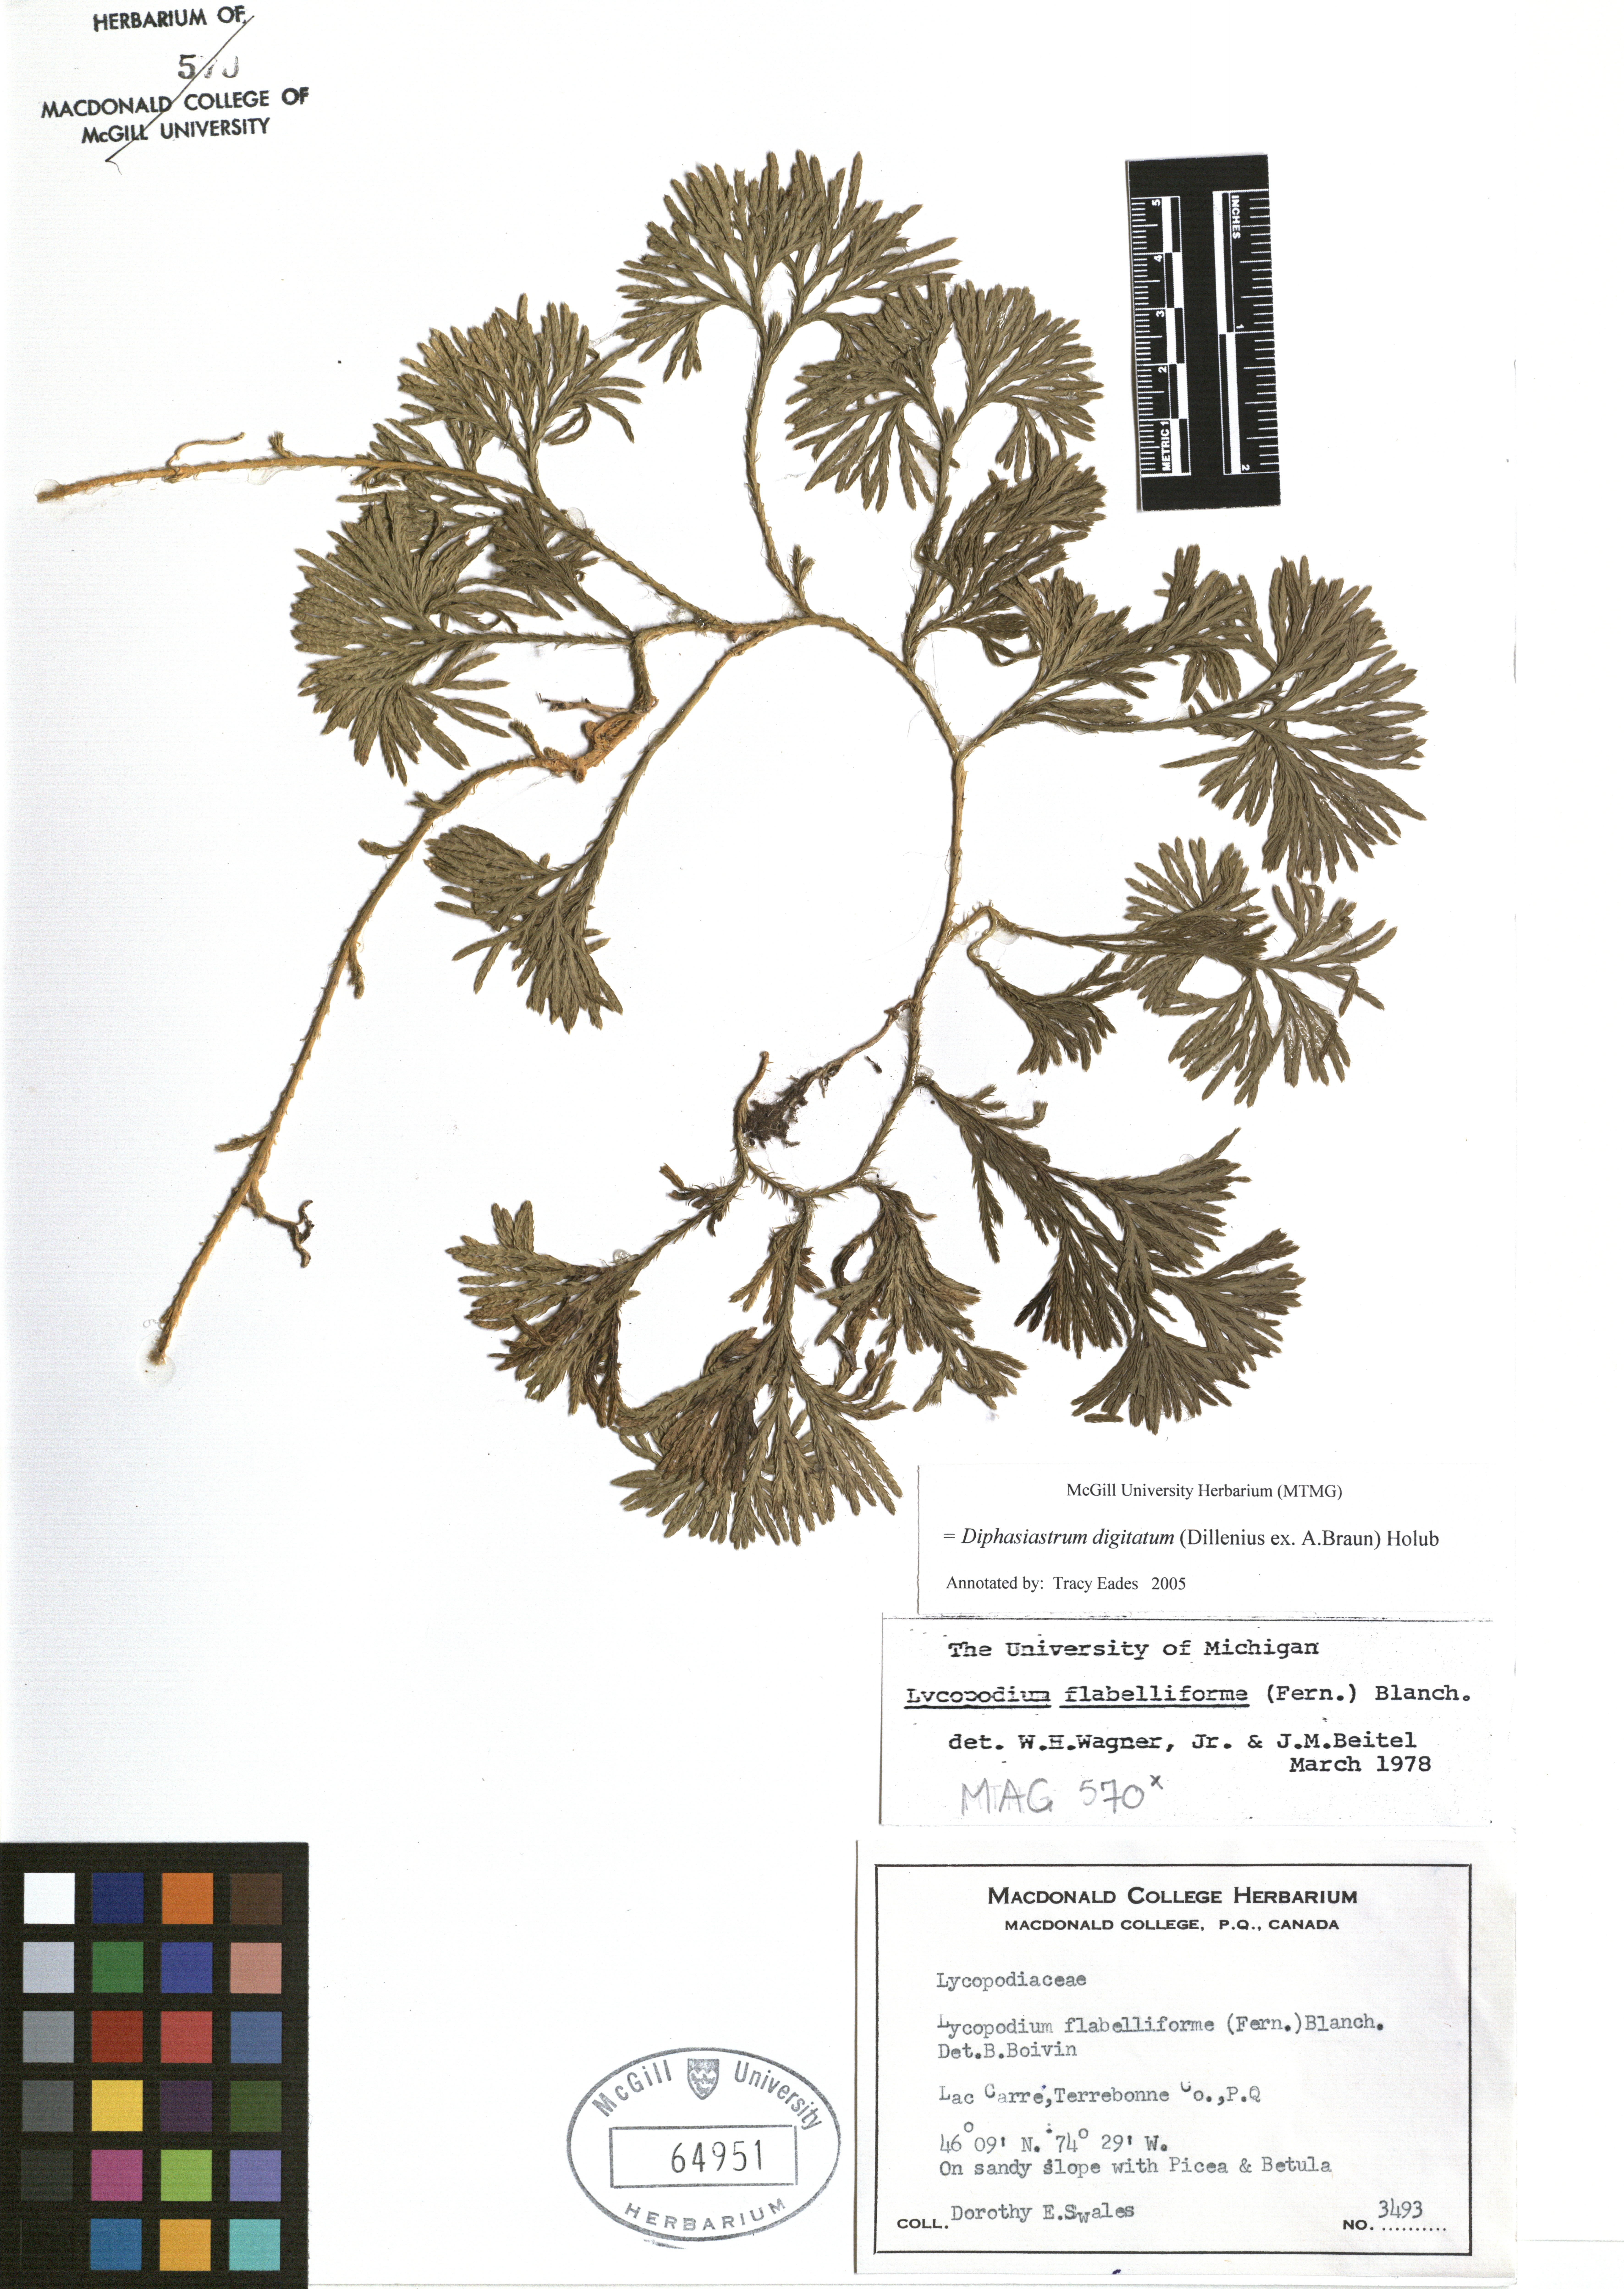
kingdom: Plantae
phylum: Tracheophyta
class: Lycopodiopsida
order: Lycopodiales
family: Lycopodiaceae
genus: Diphasiastrum
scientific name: Diphasiastrum digitatum
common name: Southern running-pine
